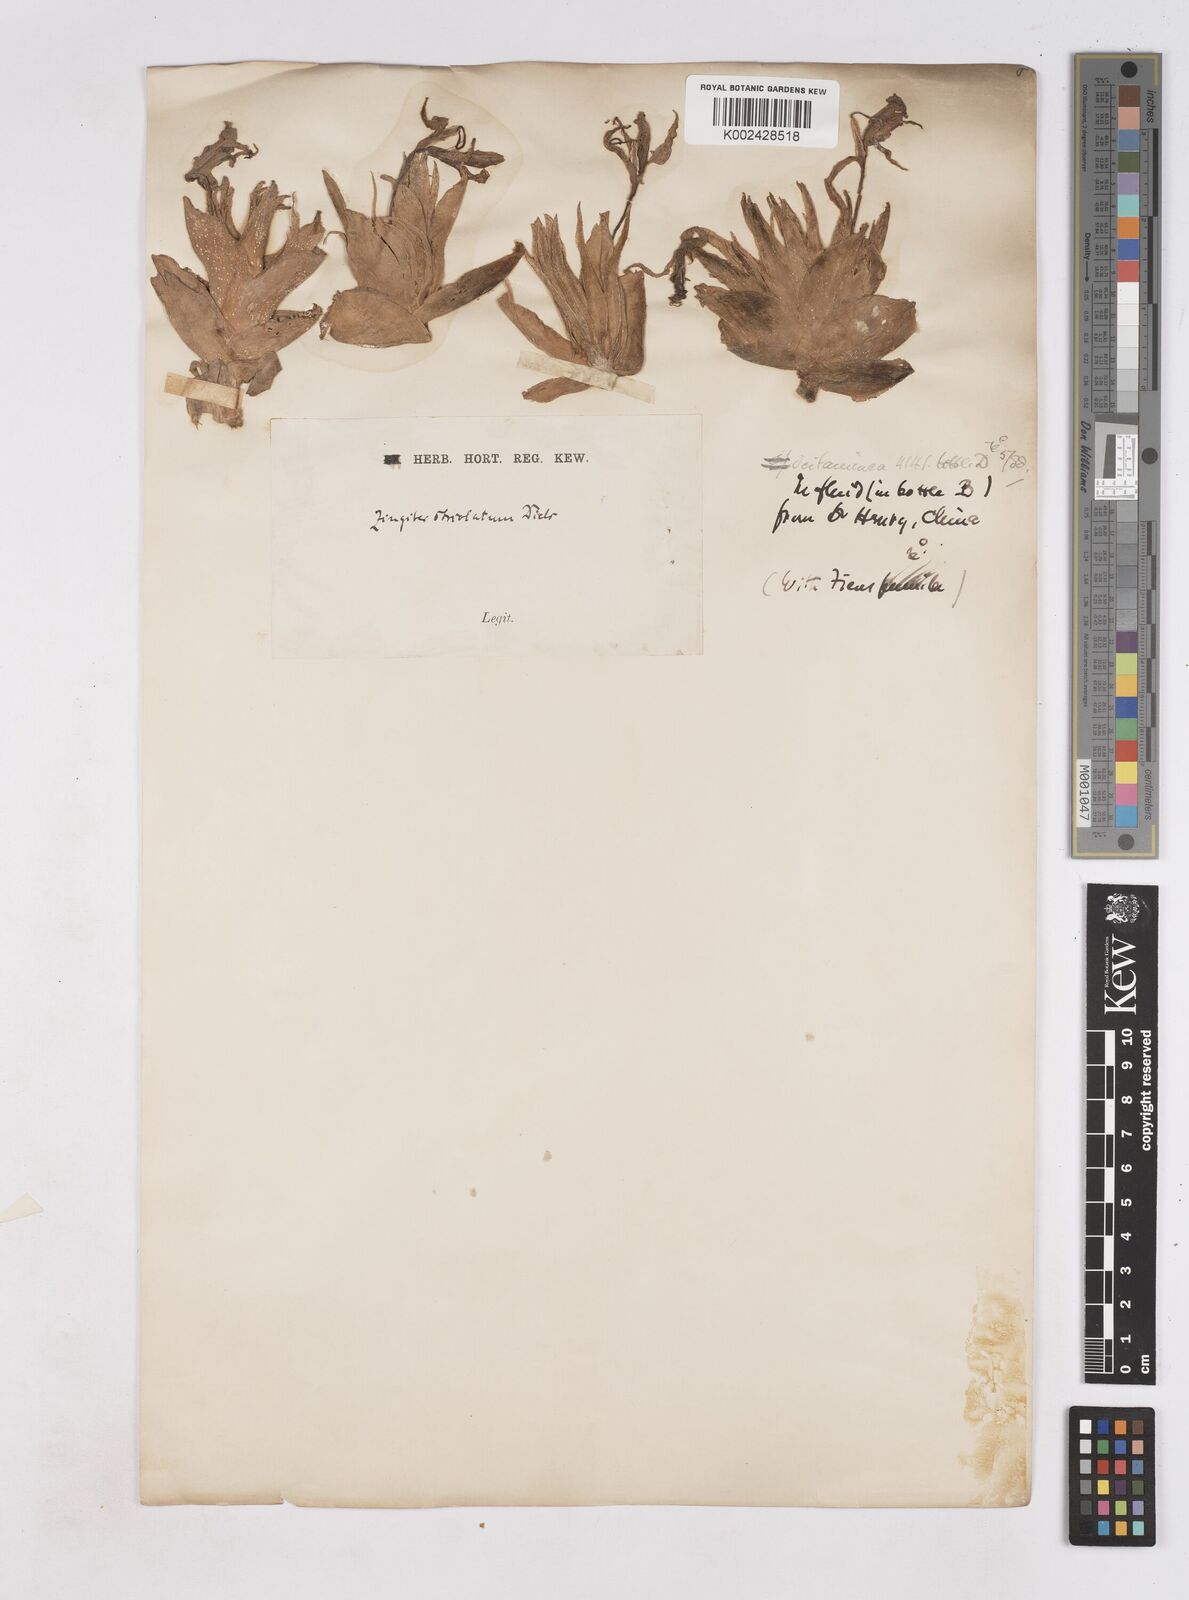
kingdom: Plantae
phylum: Tracheophyta
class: Liliopsida
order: Zingiberales
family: Zingiberaceae
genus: Zingiber
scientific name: Zingiber striolatum
